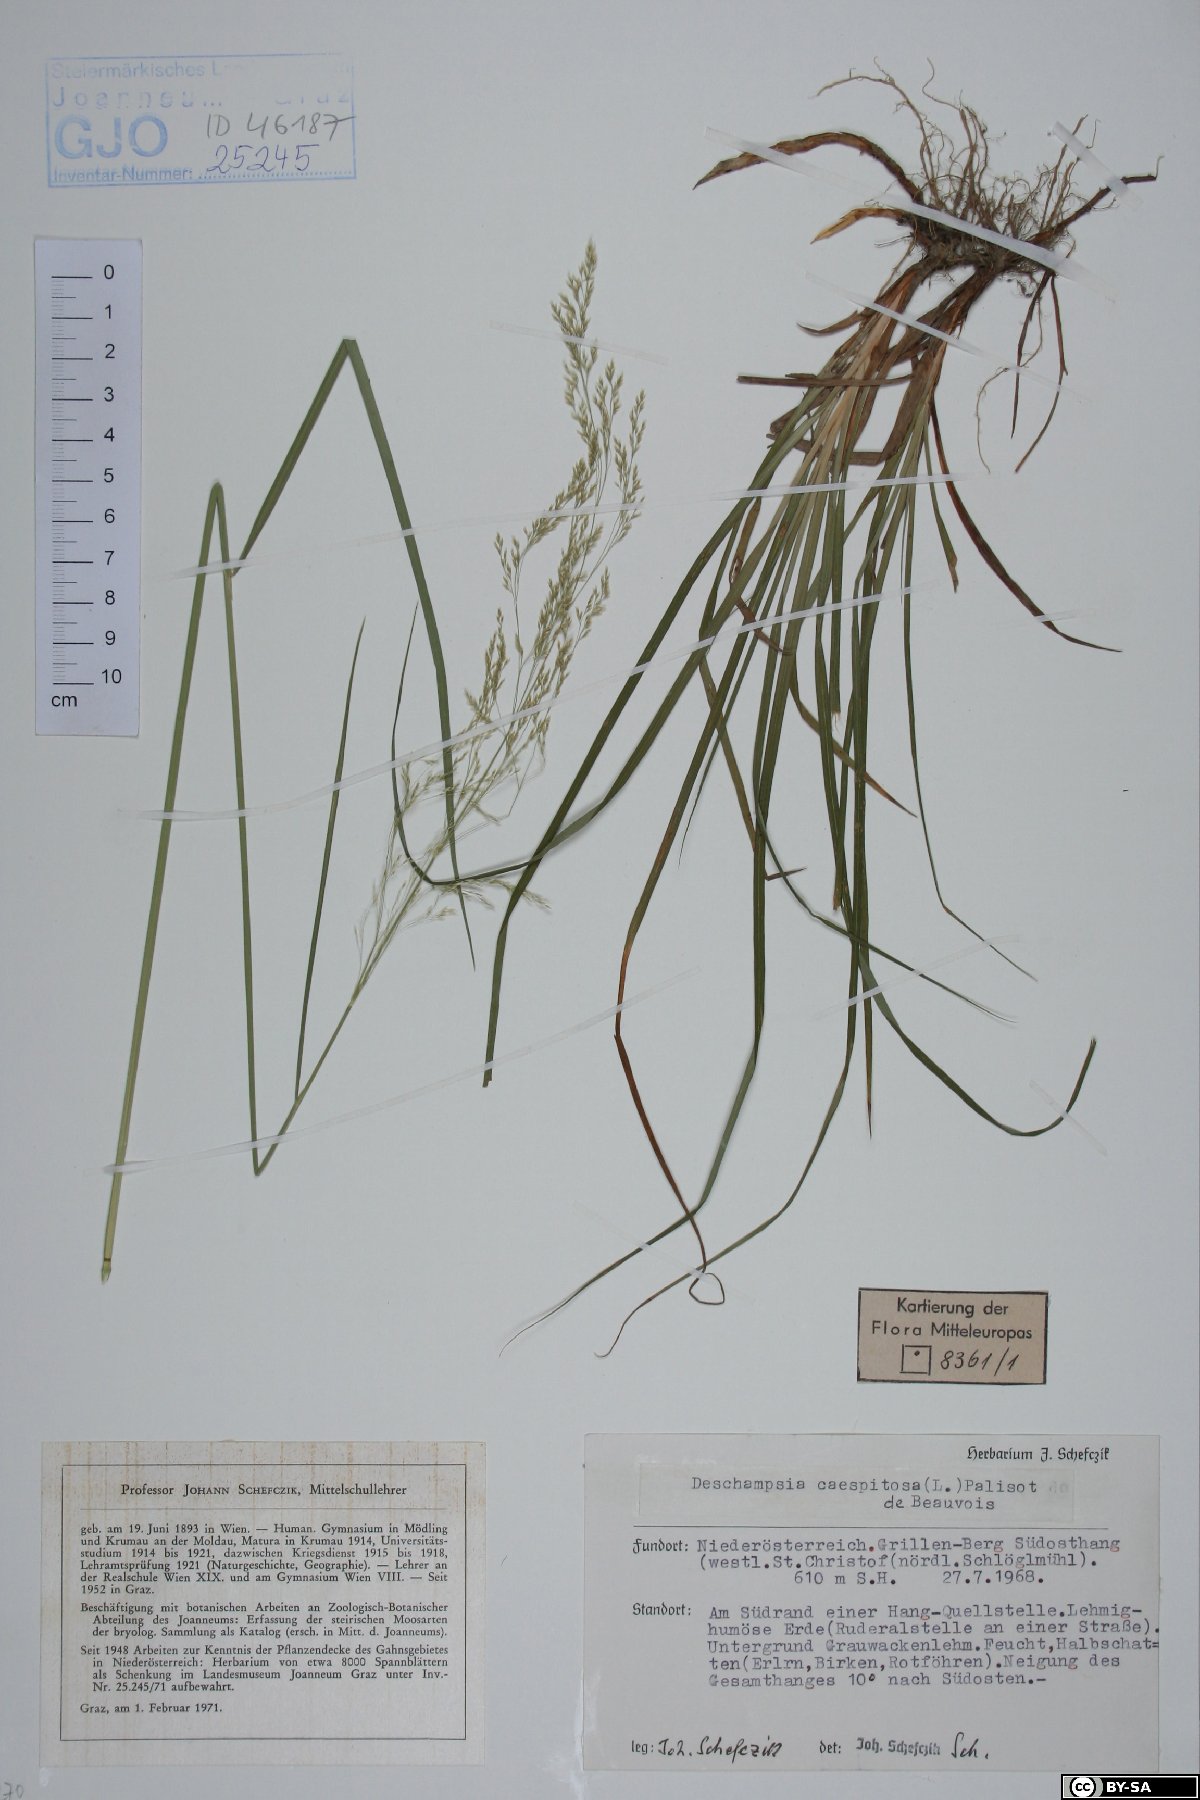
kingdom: Plantae
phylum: Tracheophyta
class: Liliopsida
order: Poales
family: Poaceae
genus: Deschampsia
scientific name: Deschampsia cespitosa
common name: Tufted hair-grass
